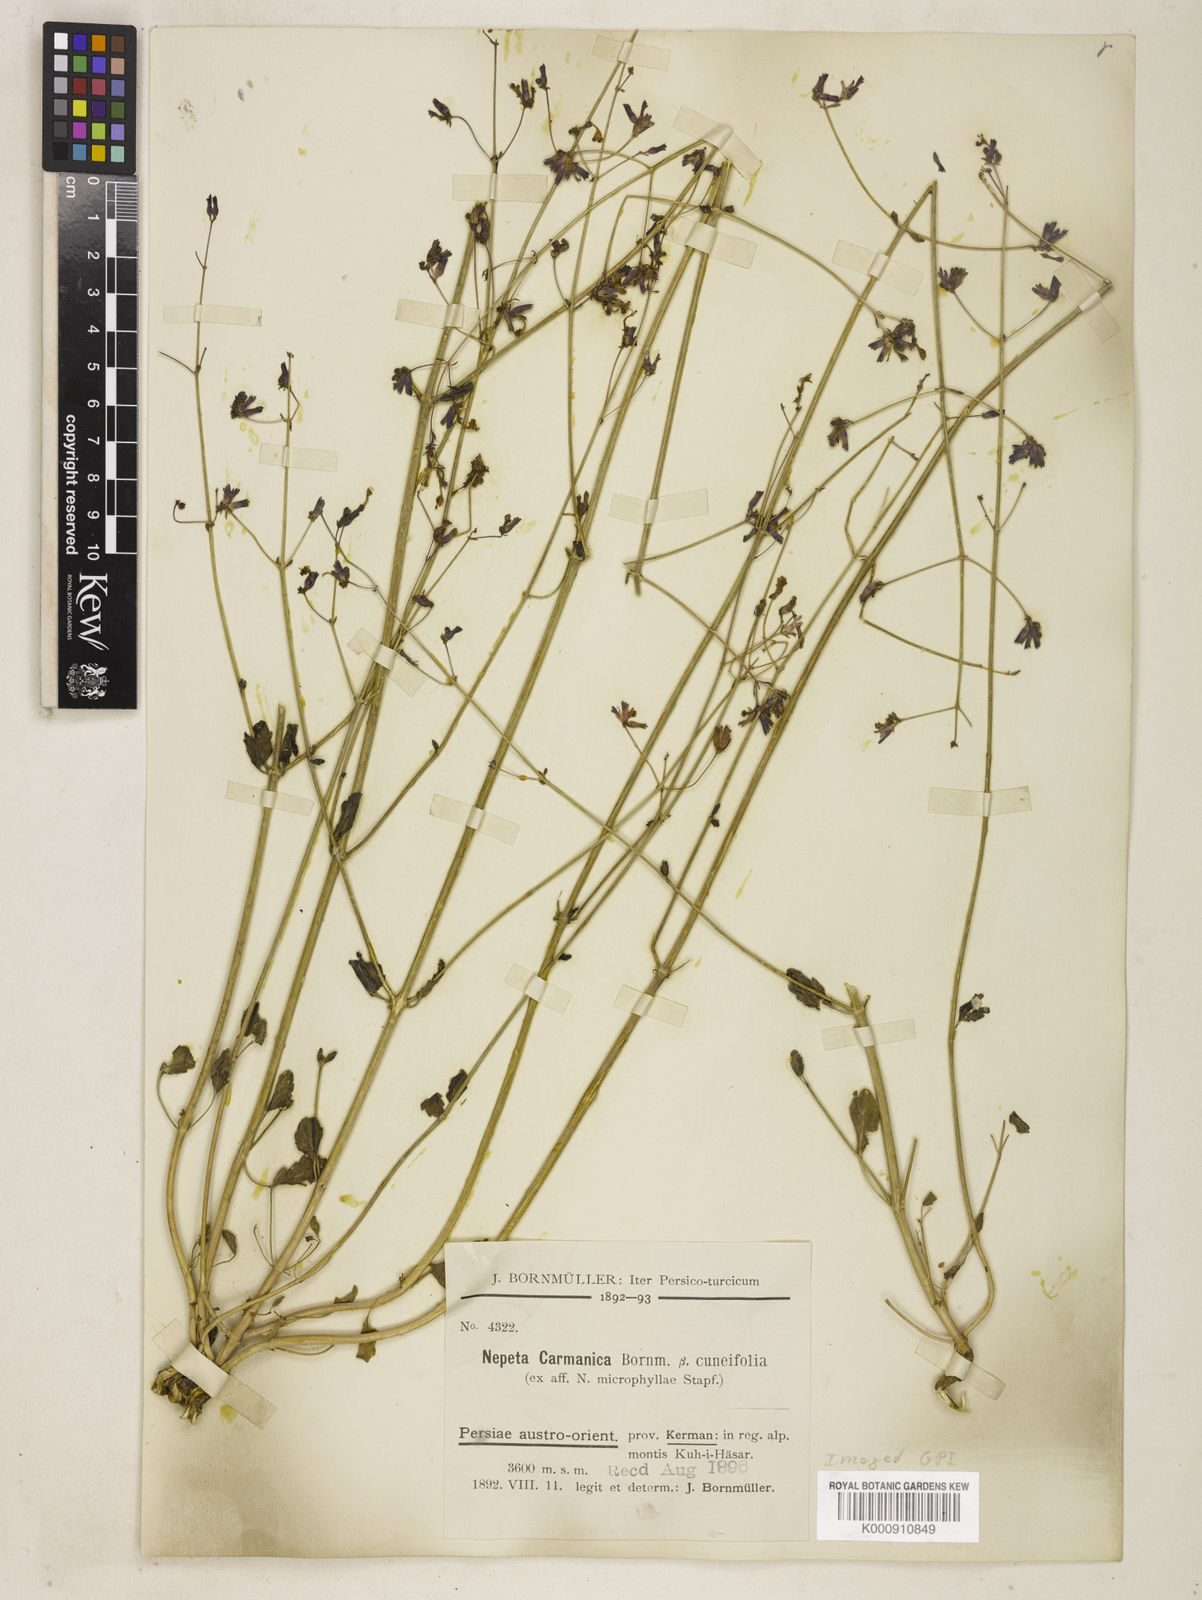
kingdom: Plantae
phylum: Tracheophyta
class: Magnoliopsida
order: Lamiales
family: Lamiaceae
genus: Nepeta
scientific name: Nepeta teucriifolia
